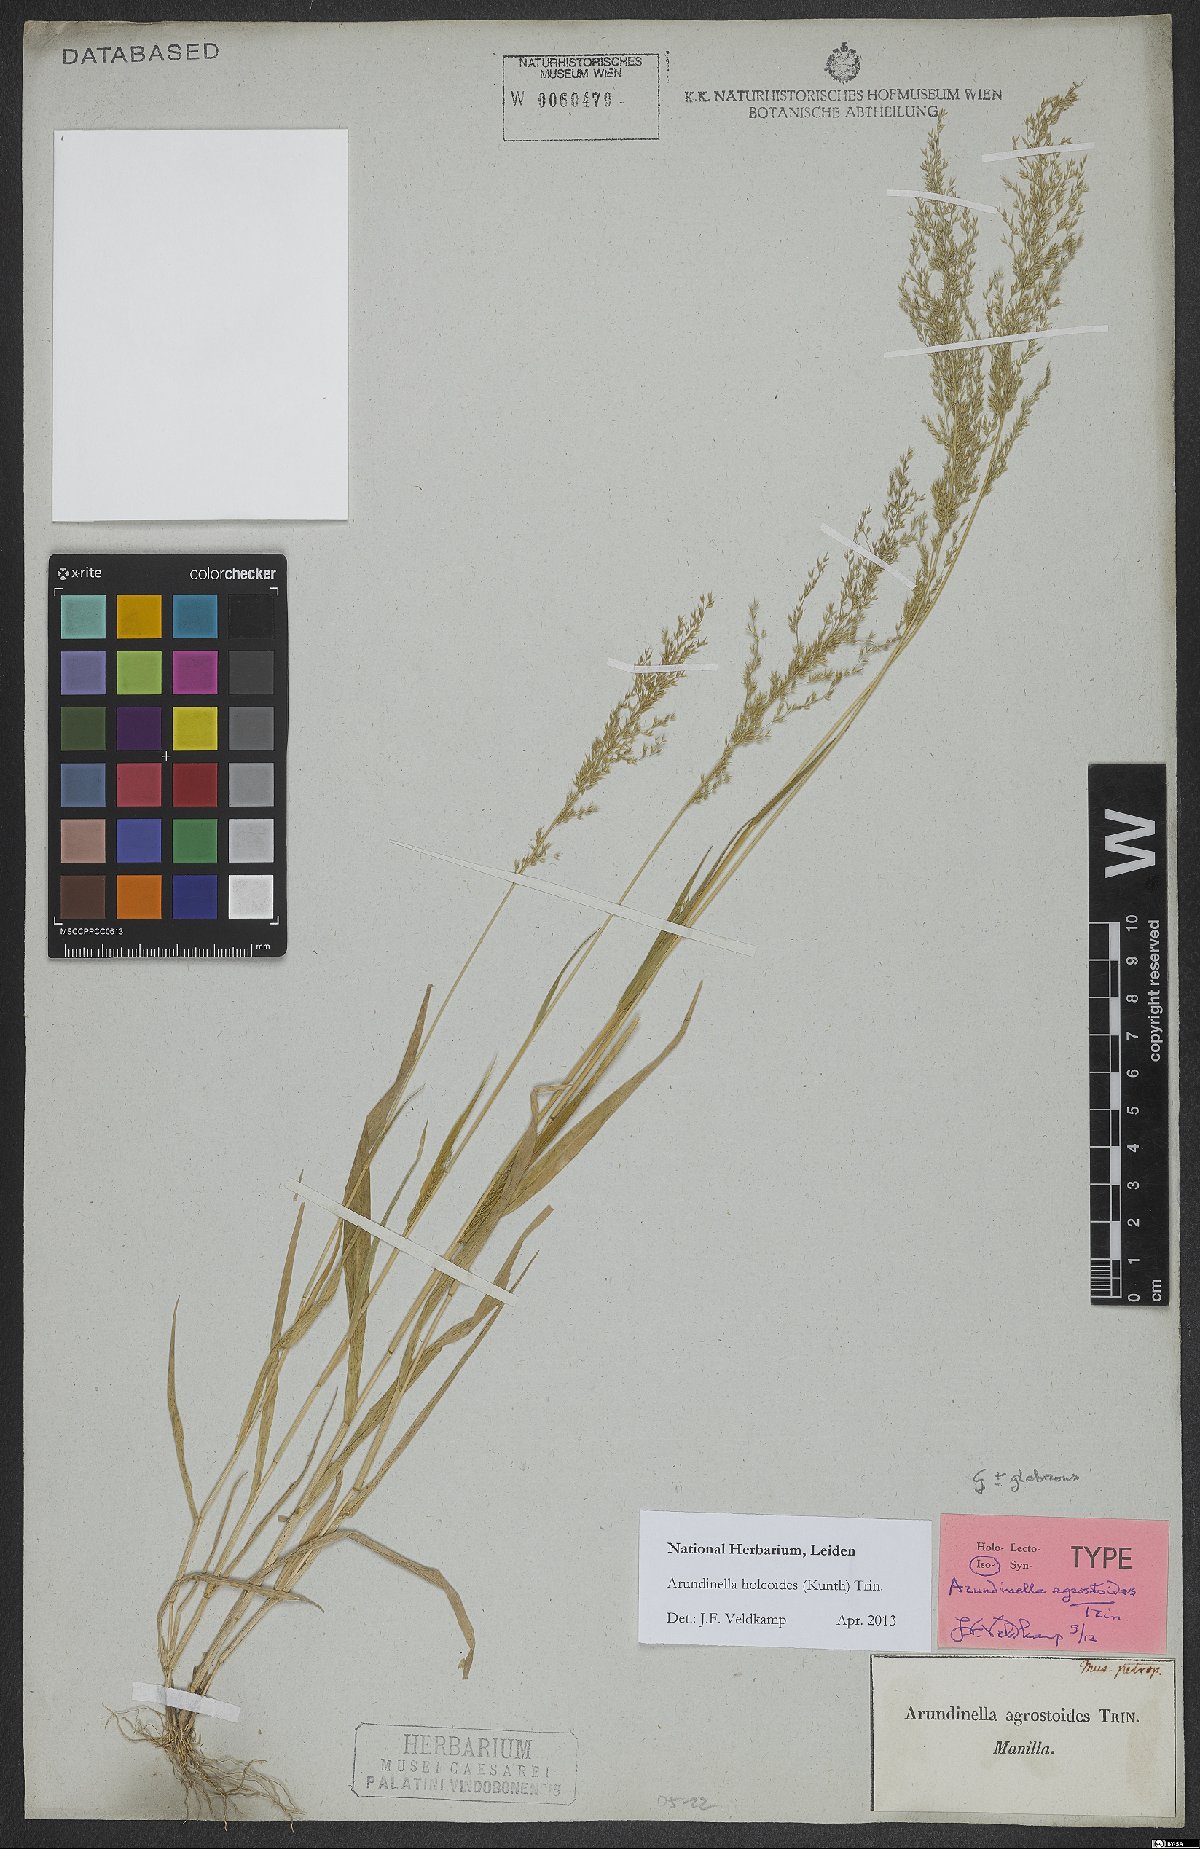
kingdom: Plantae
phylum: Tracheophyta
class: Liliopsida
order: Poales
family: Poaceae
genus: Arundinella
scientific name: Arundinella holcoides
